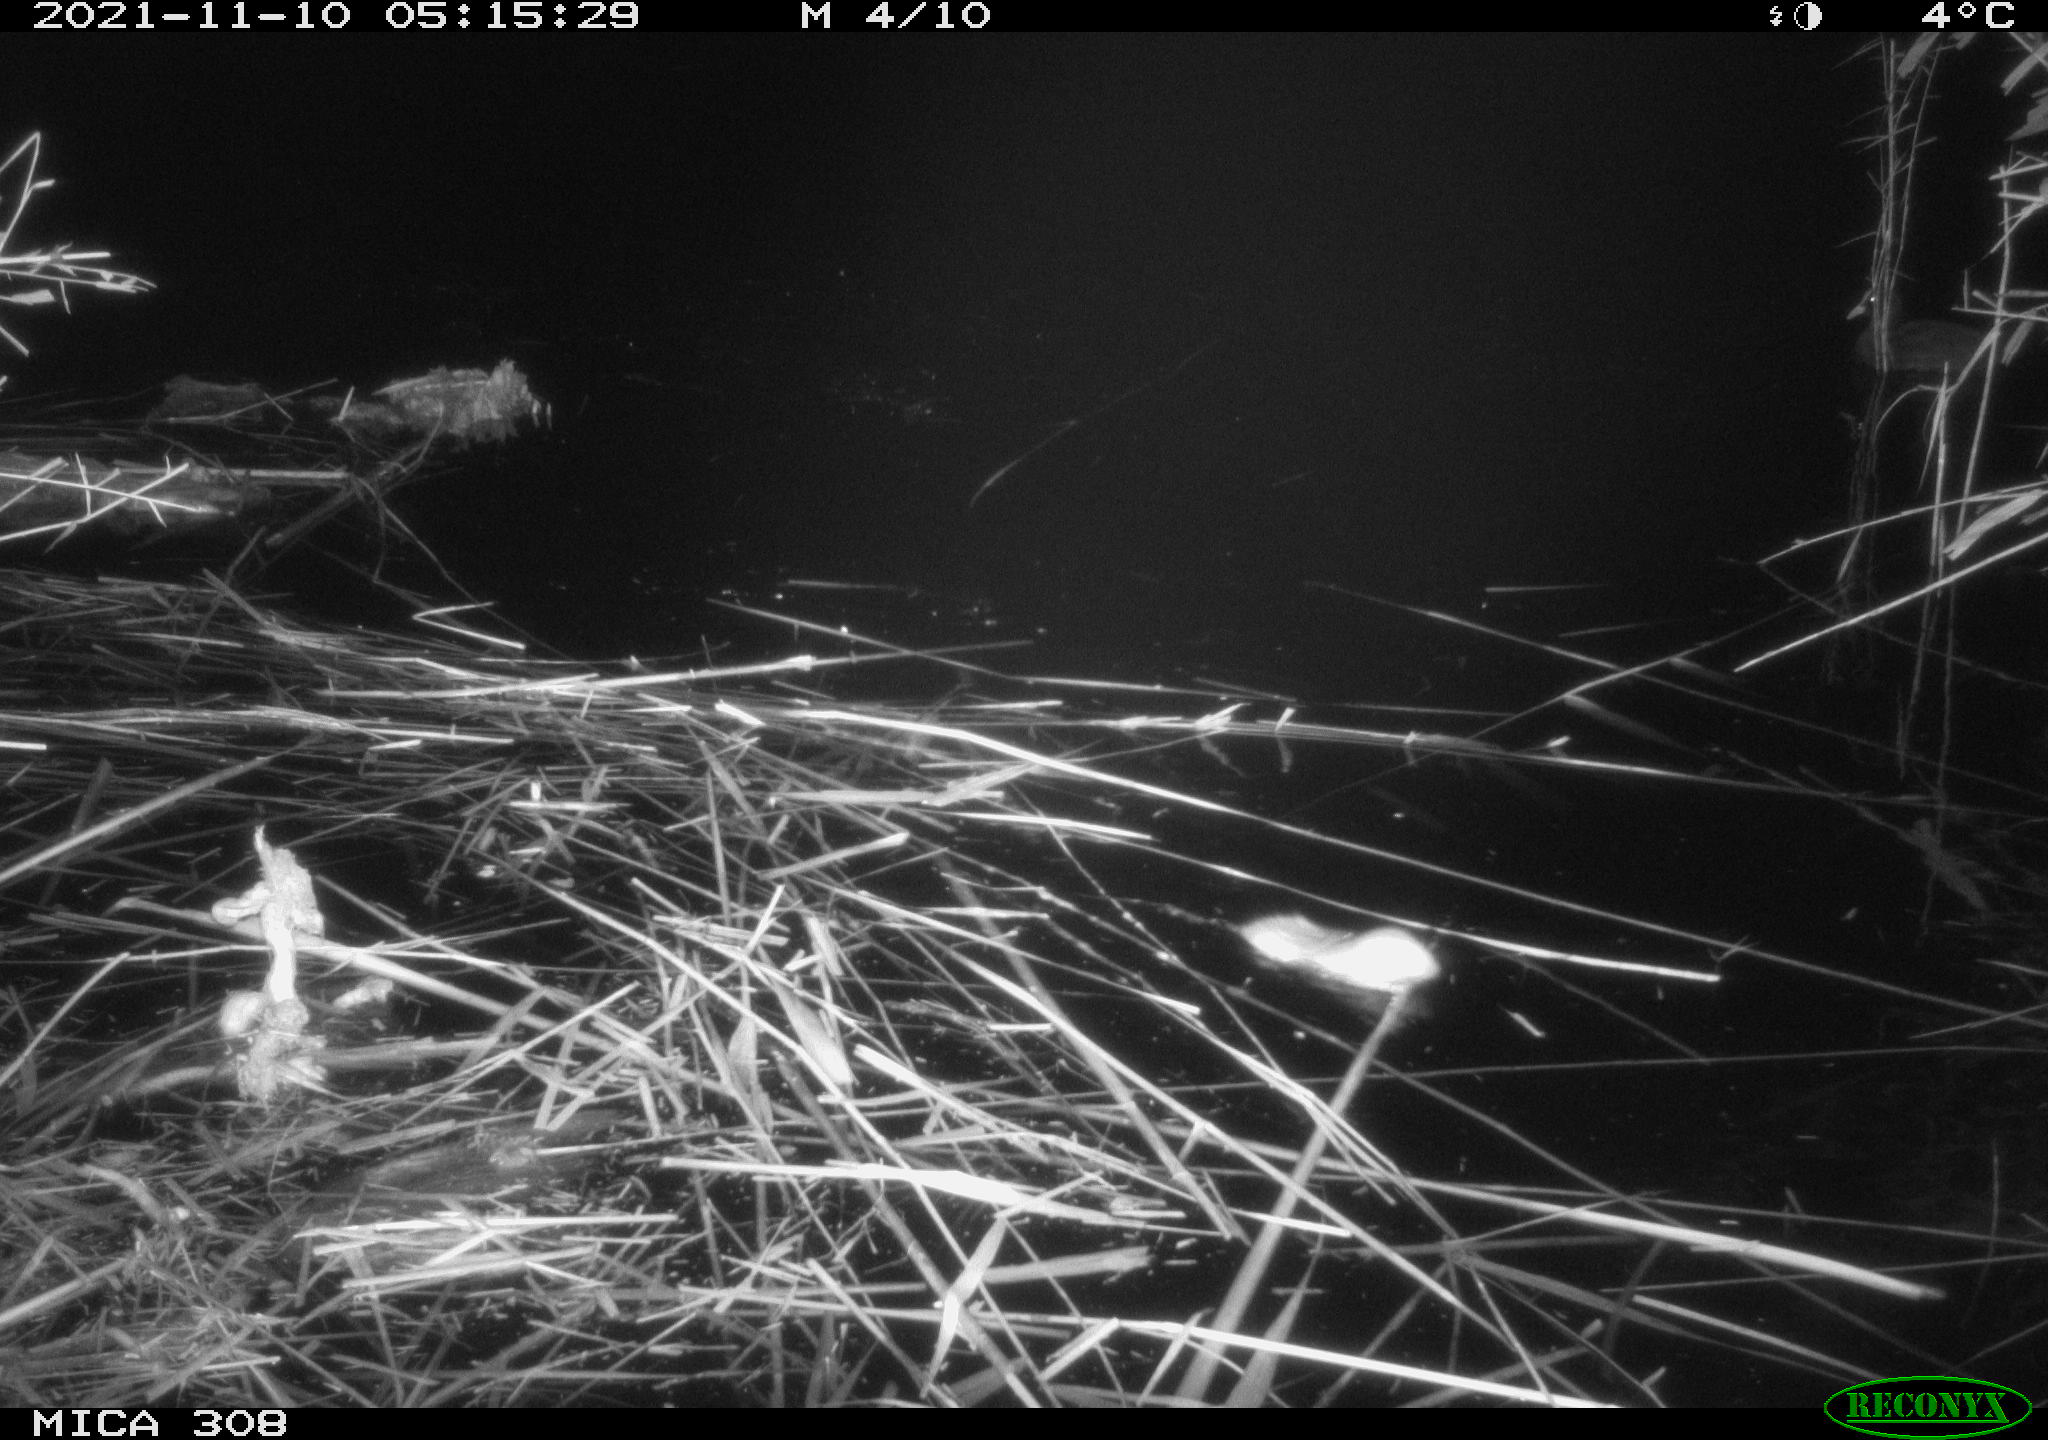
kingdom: Animalia
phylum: Chordata
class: Aves
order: Gruiformes
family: Rallidae
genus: Fulica
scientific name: Fulica atra
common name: Eurasian coot
